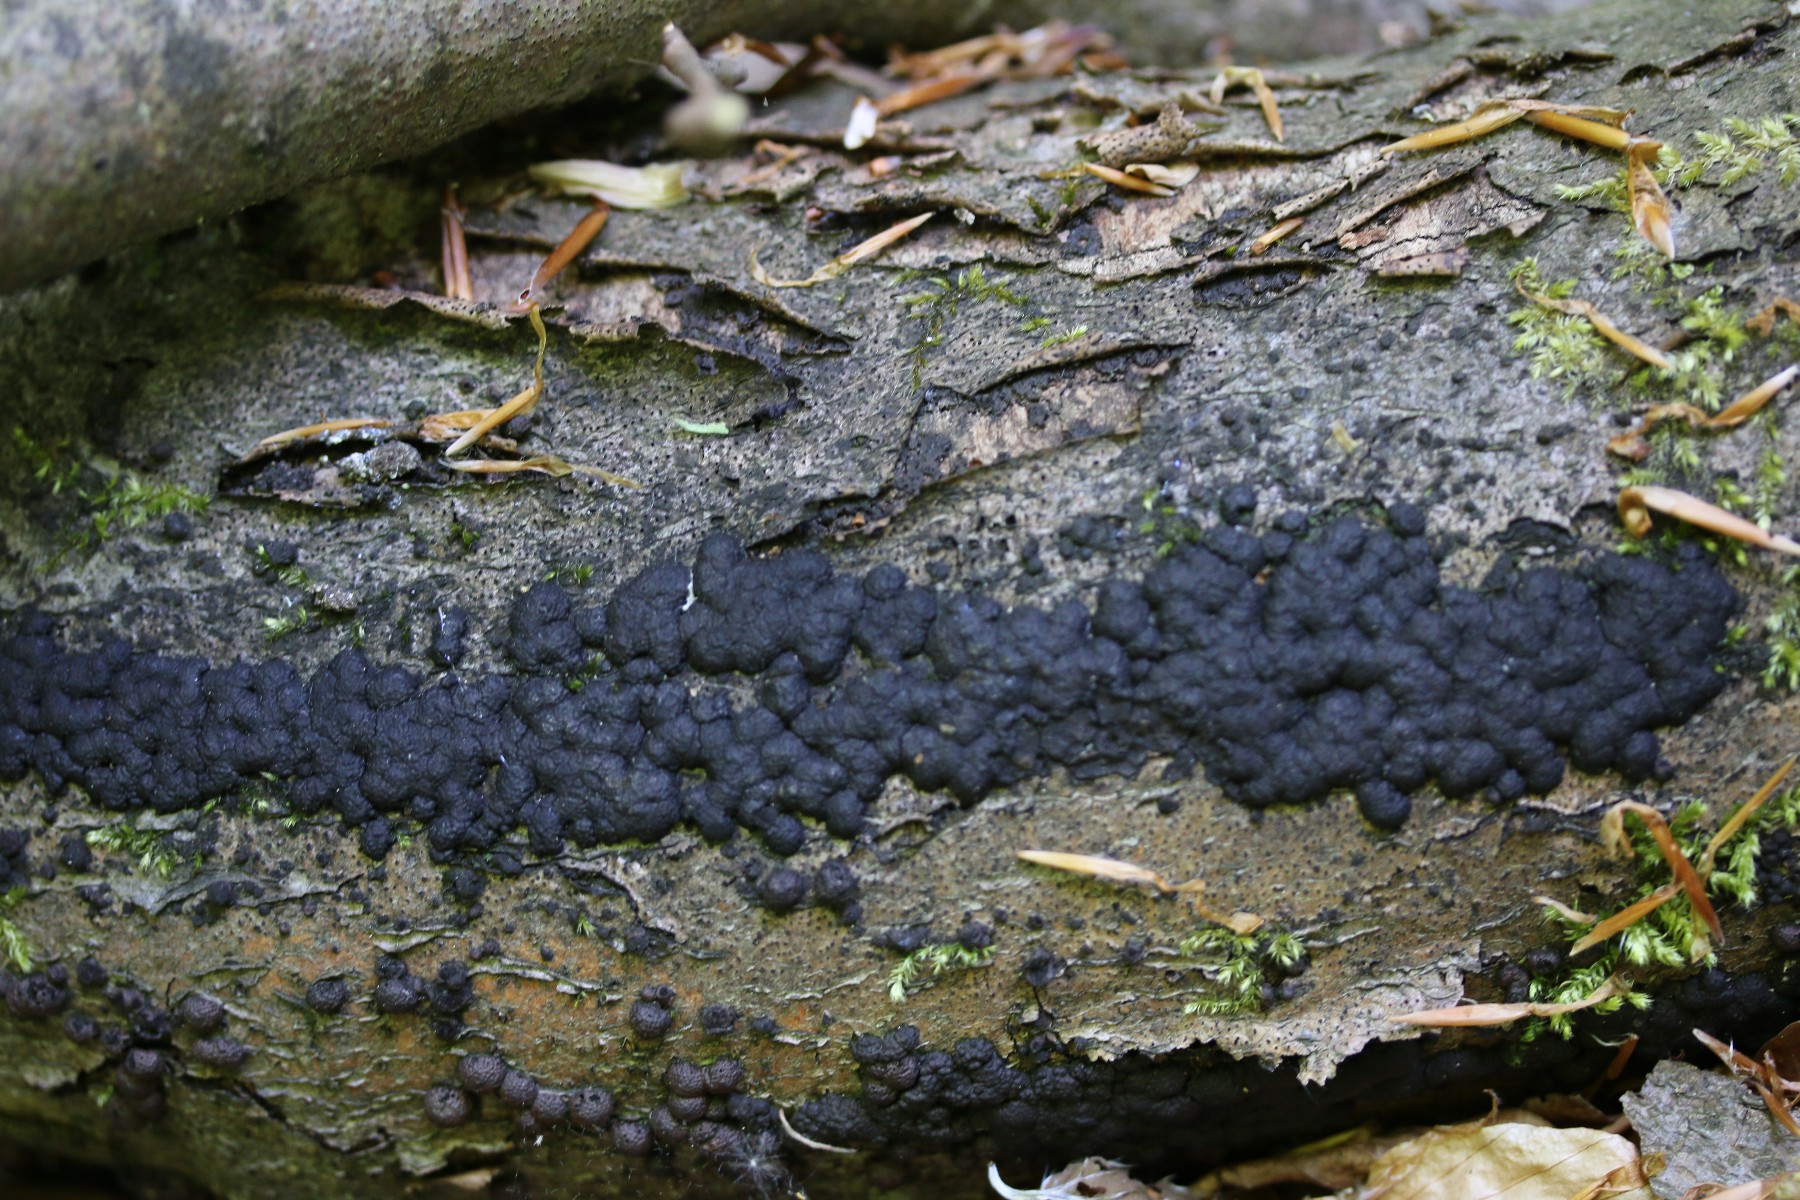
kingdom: Fungi
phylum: Ascomycota
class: Sordariomycetes
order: Xylariales
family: Hypoxylaceae
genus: Jackrogersella
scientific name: Jackrogersella cohaerens
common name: sammenflydende kulbær
